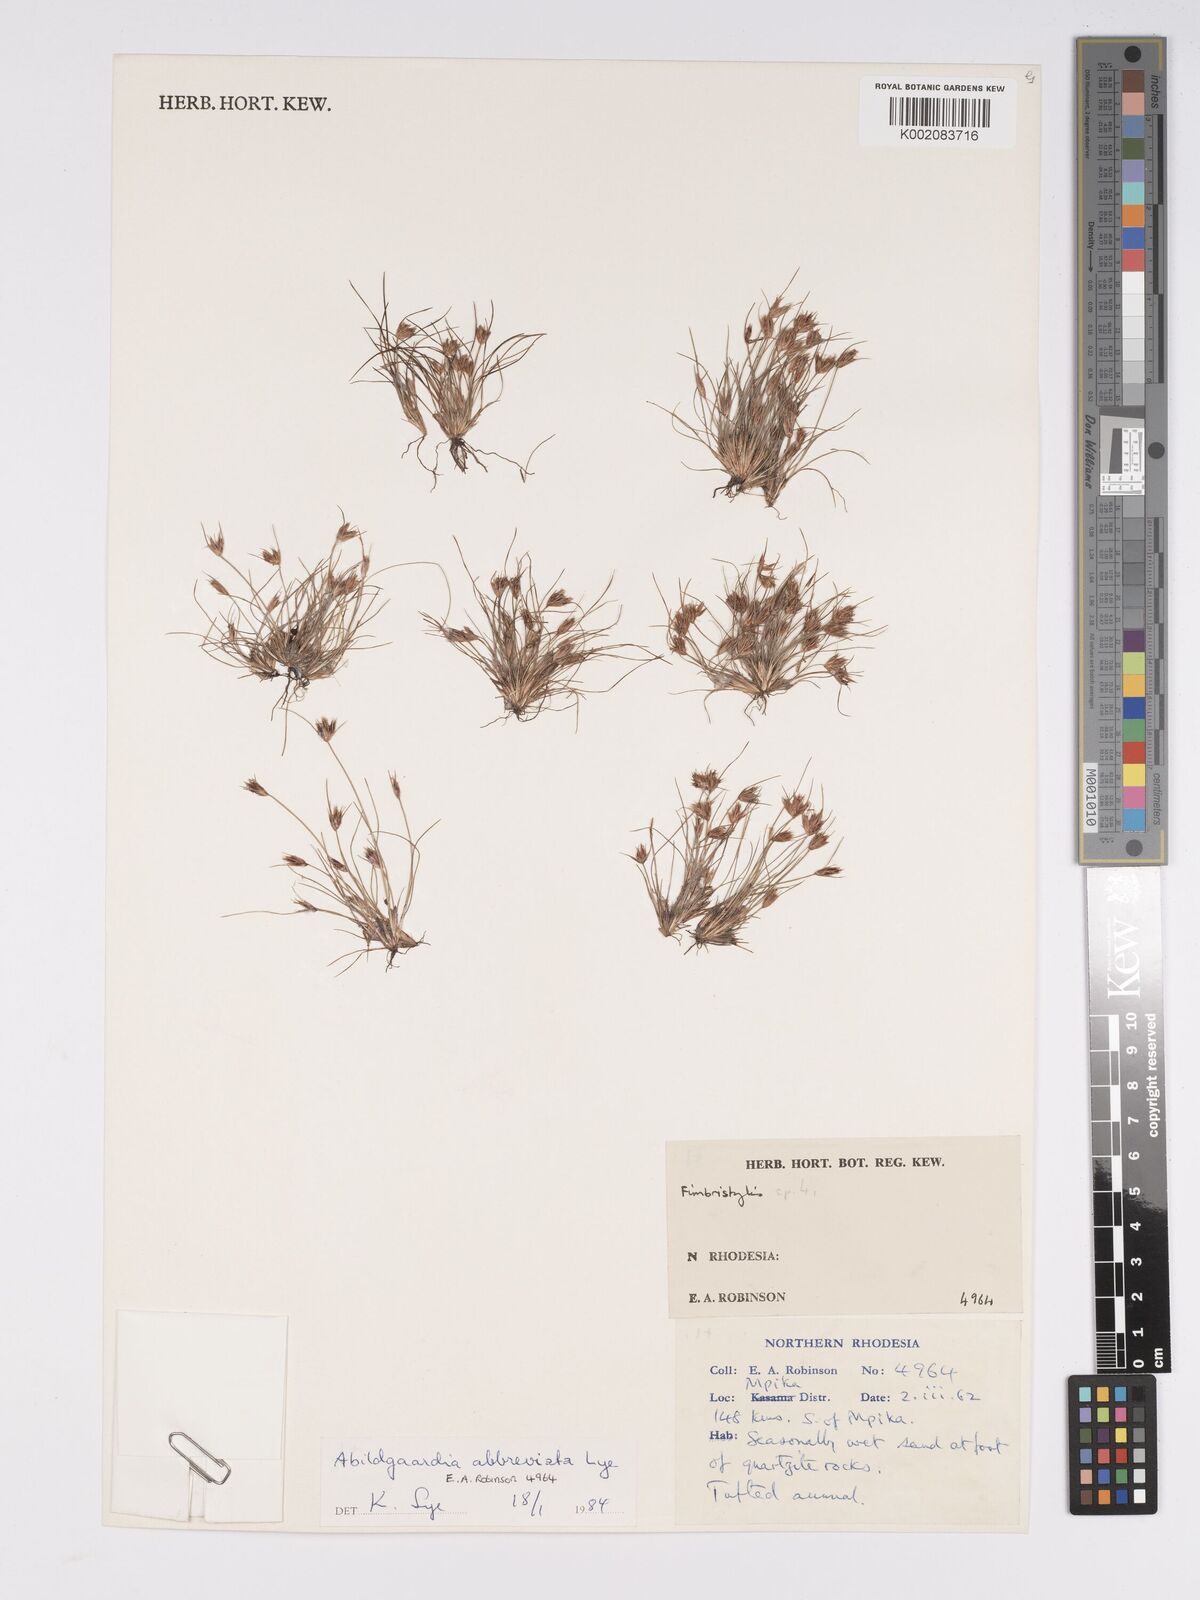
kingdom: Plantae
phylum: Tracheophyta
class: Liliopsida
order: Poales
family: Cyperaceae
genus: Bulbostylis
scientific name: Bulbostylis abbreviata
